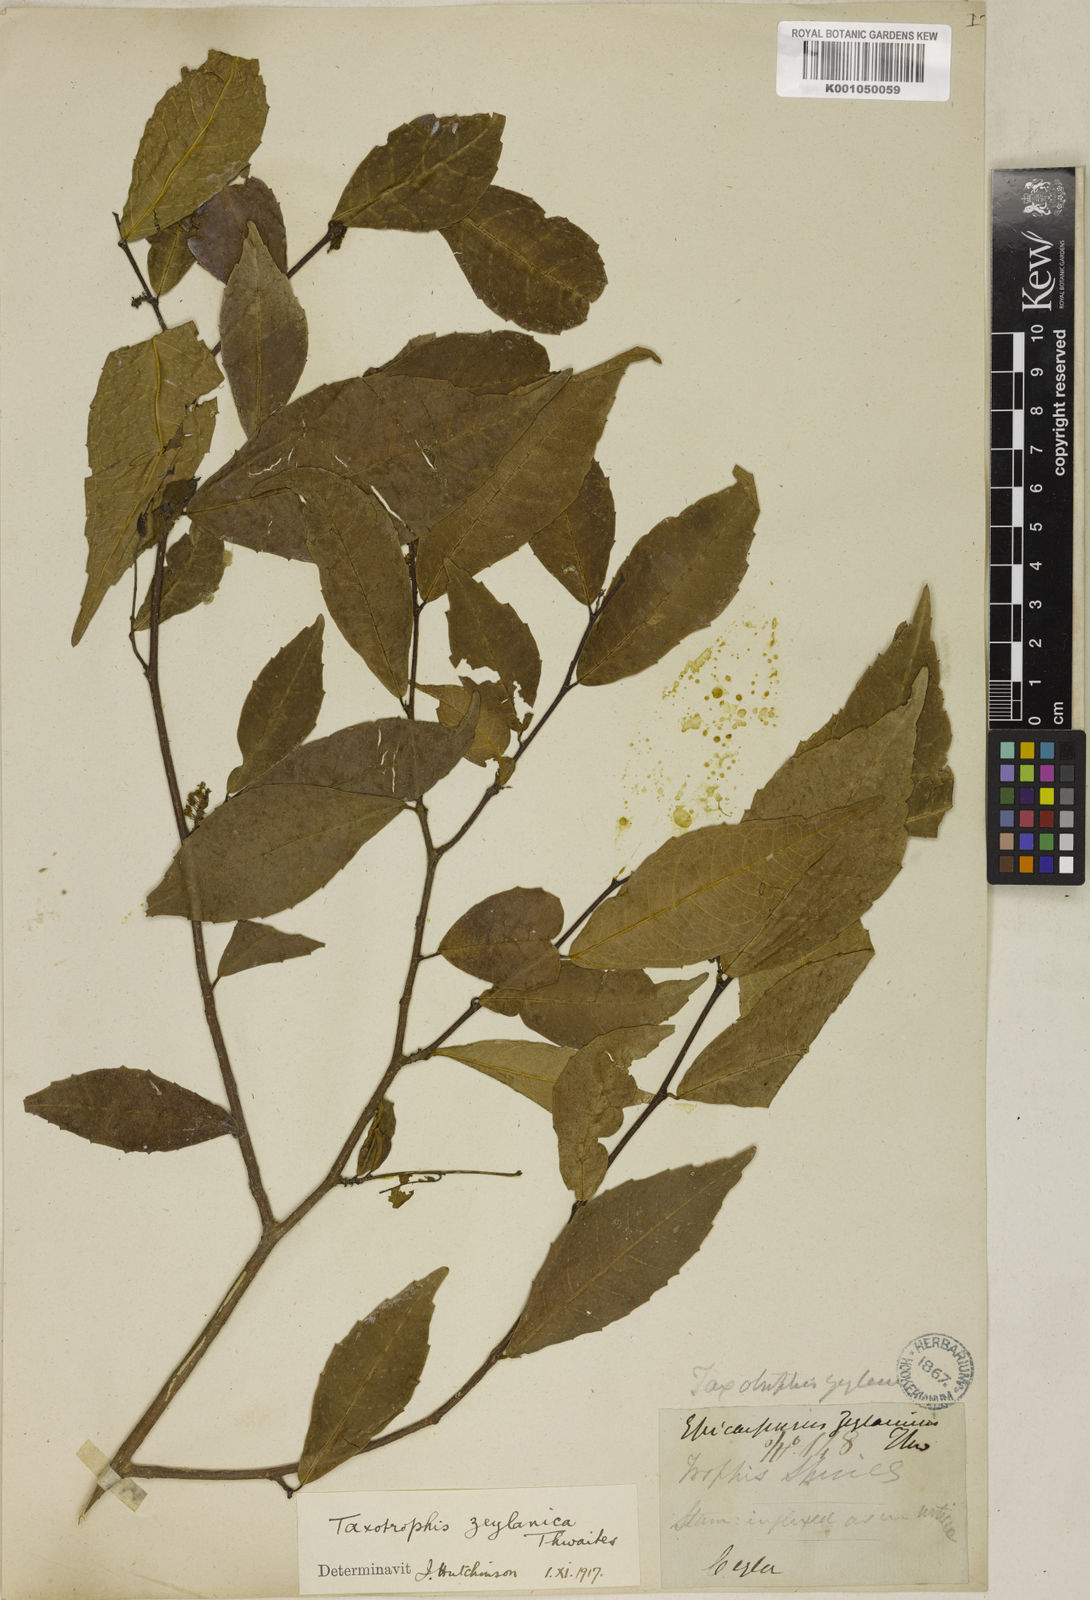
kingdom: Plantae
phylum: Tracheophyta
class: Magnoliopsida
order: Rosales
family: Moraceae
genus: Taxotrophis
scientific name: Taxotrophis zeylanica
